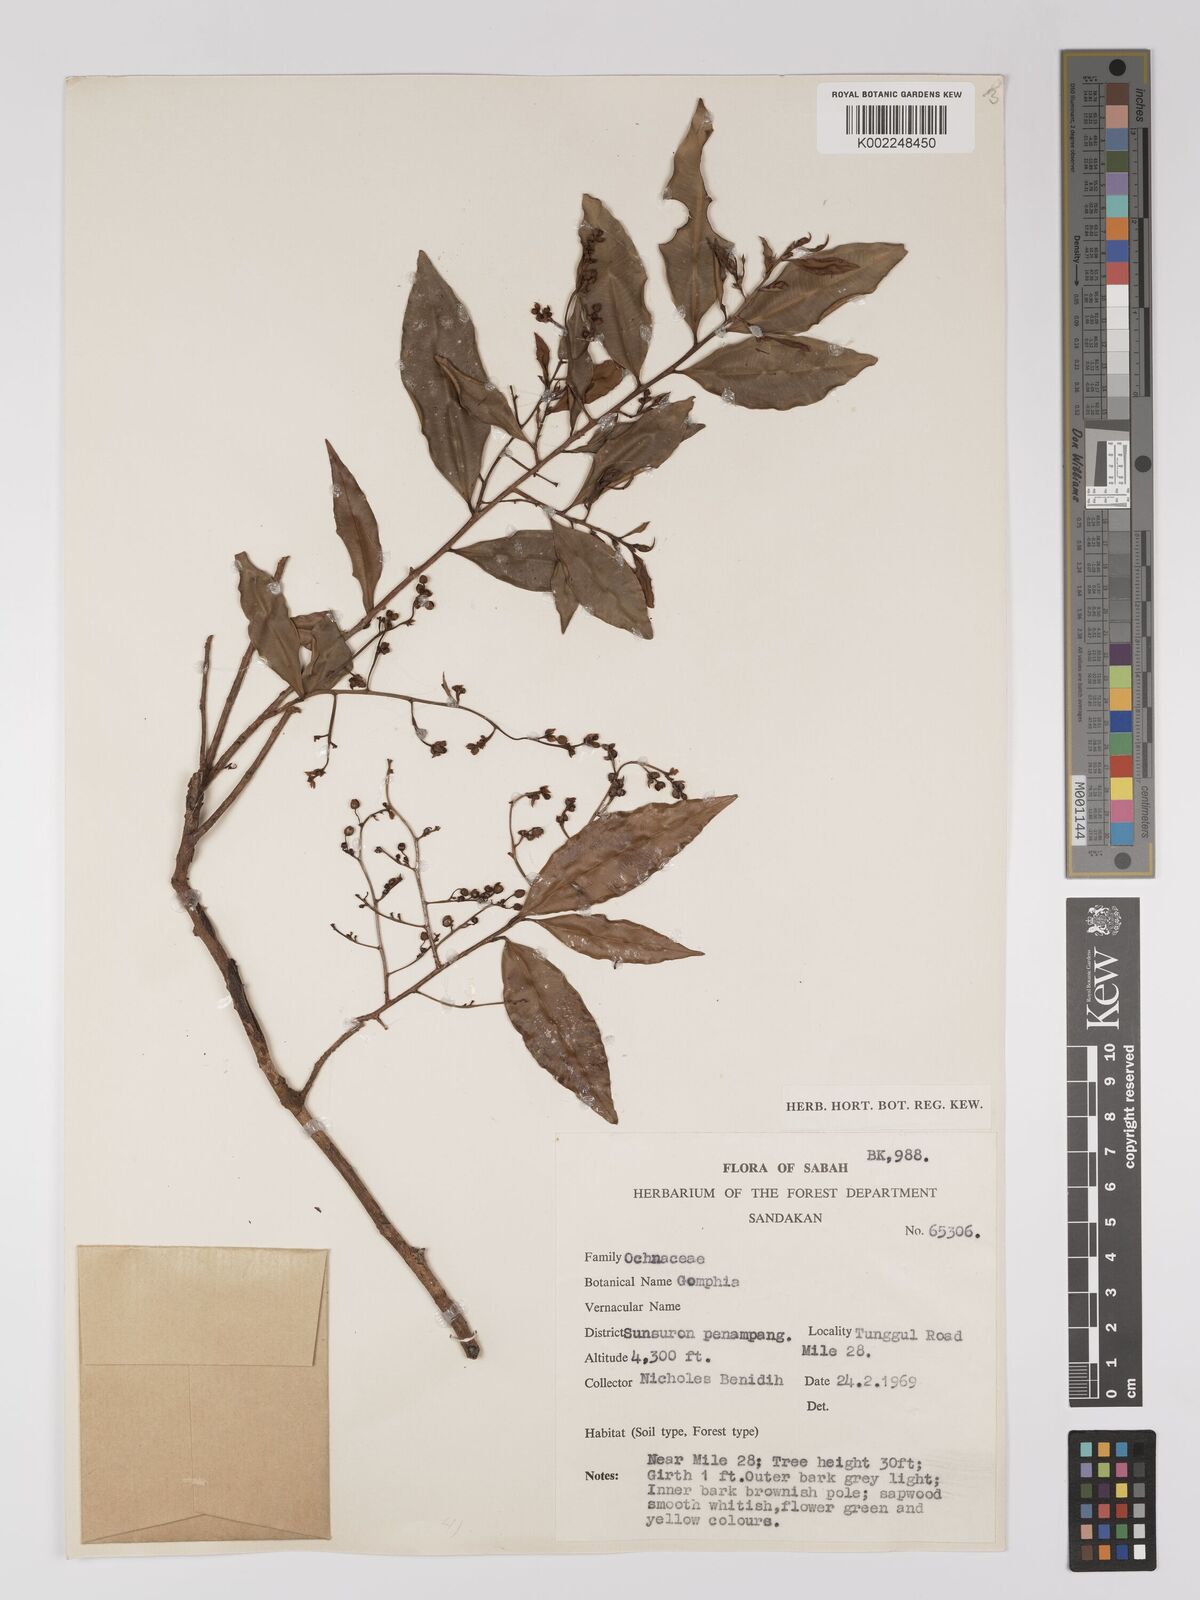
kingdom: Plantae
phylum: Tracheophyta
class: Magnoliopsida
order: Malpighiales
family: Ochnaceae
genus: Gomphia
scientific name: Gomphia serrata
